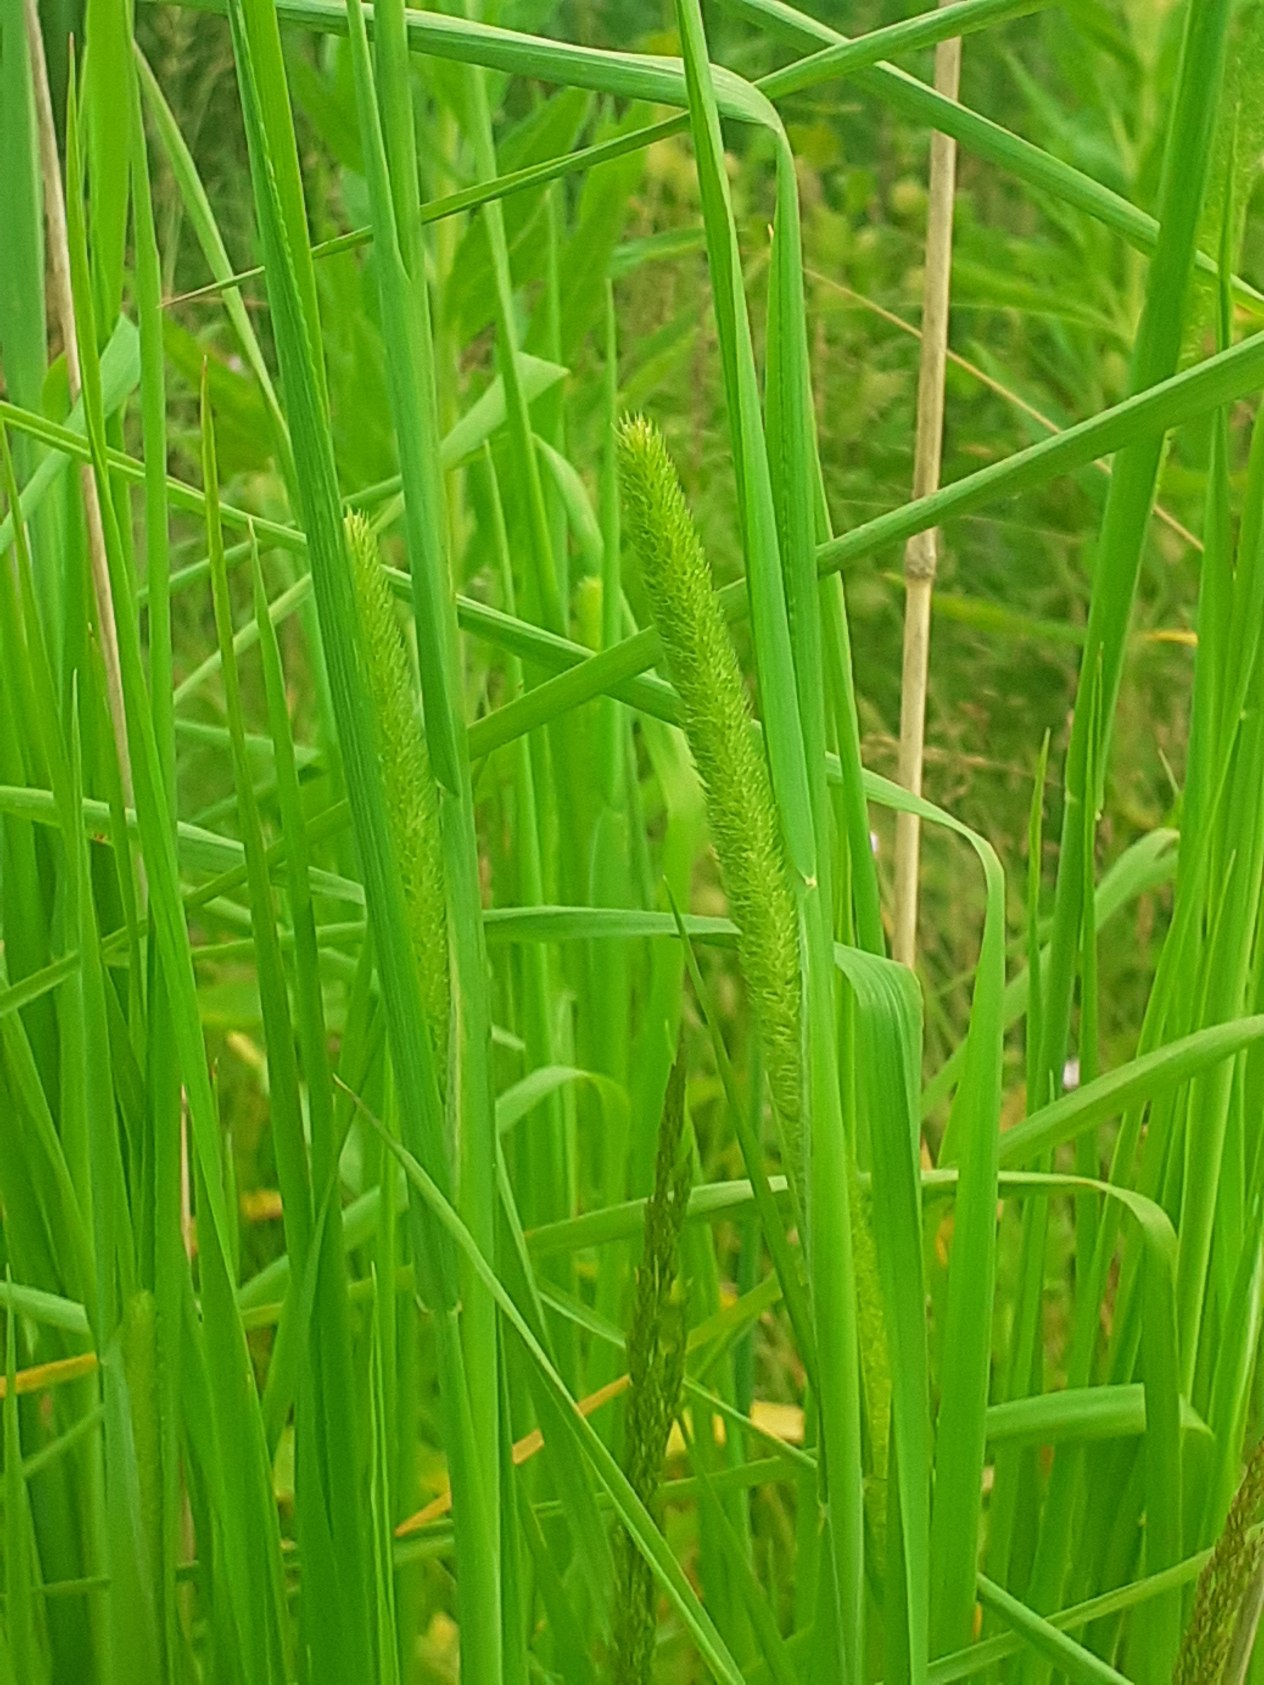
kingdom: Plantae
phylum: Tracheophyta
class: Liliopsida
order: Poales
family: Poaceae
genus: Phleum
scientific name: Phleum pratense
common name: Eng-rottehale
